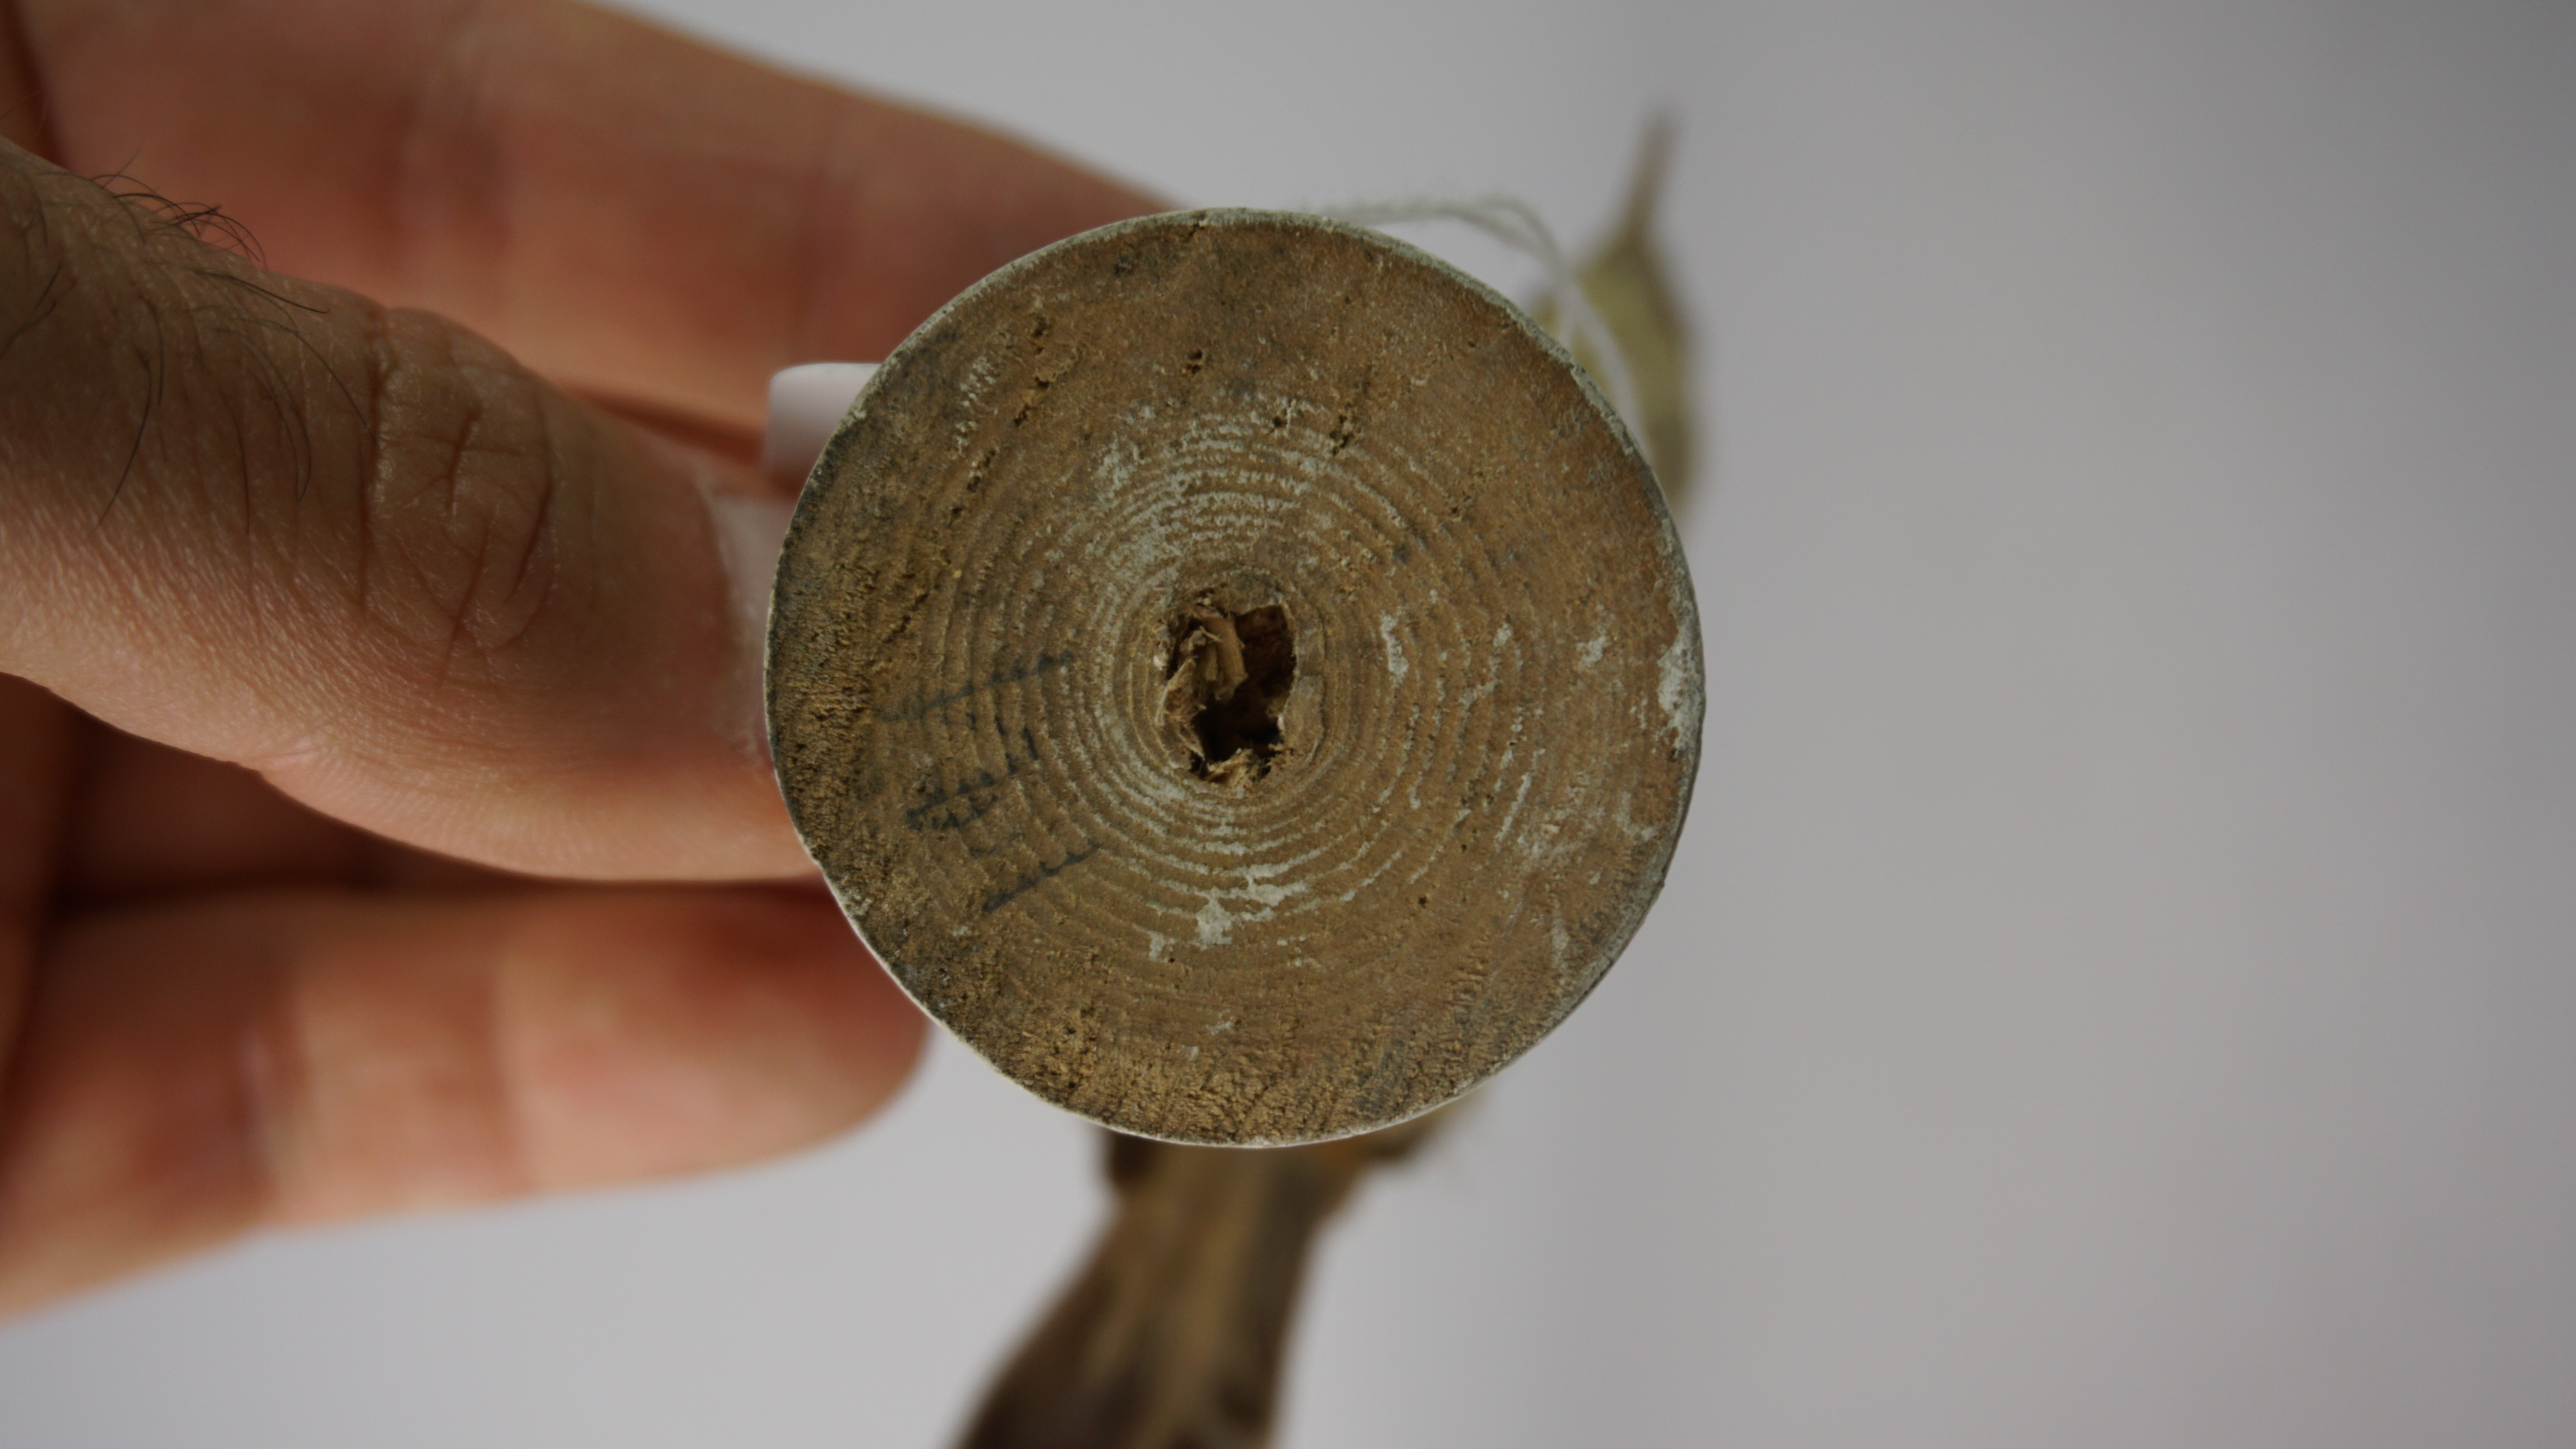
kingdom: Animalia
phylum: Chordata
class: Aves
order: Passeriformes
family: Cisticolidae
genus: Cisticola
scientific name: Cisticola juncidis
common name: Zitting cisticola
